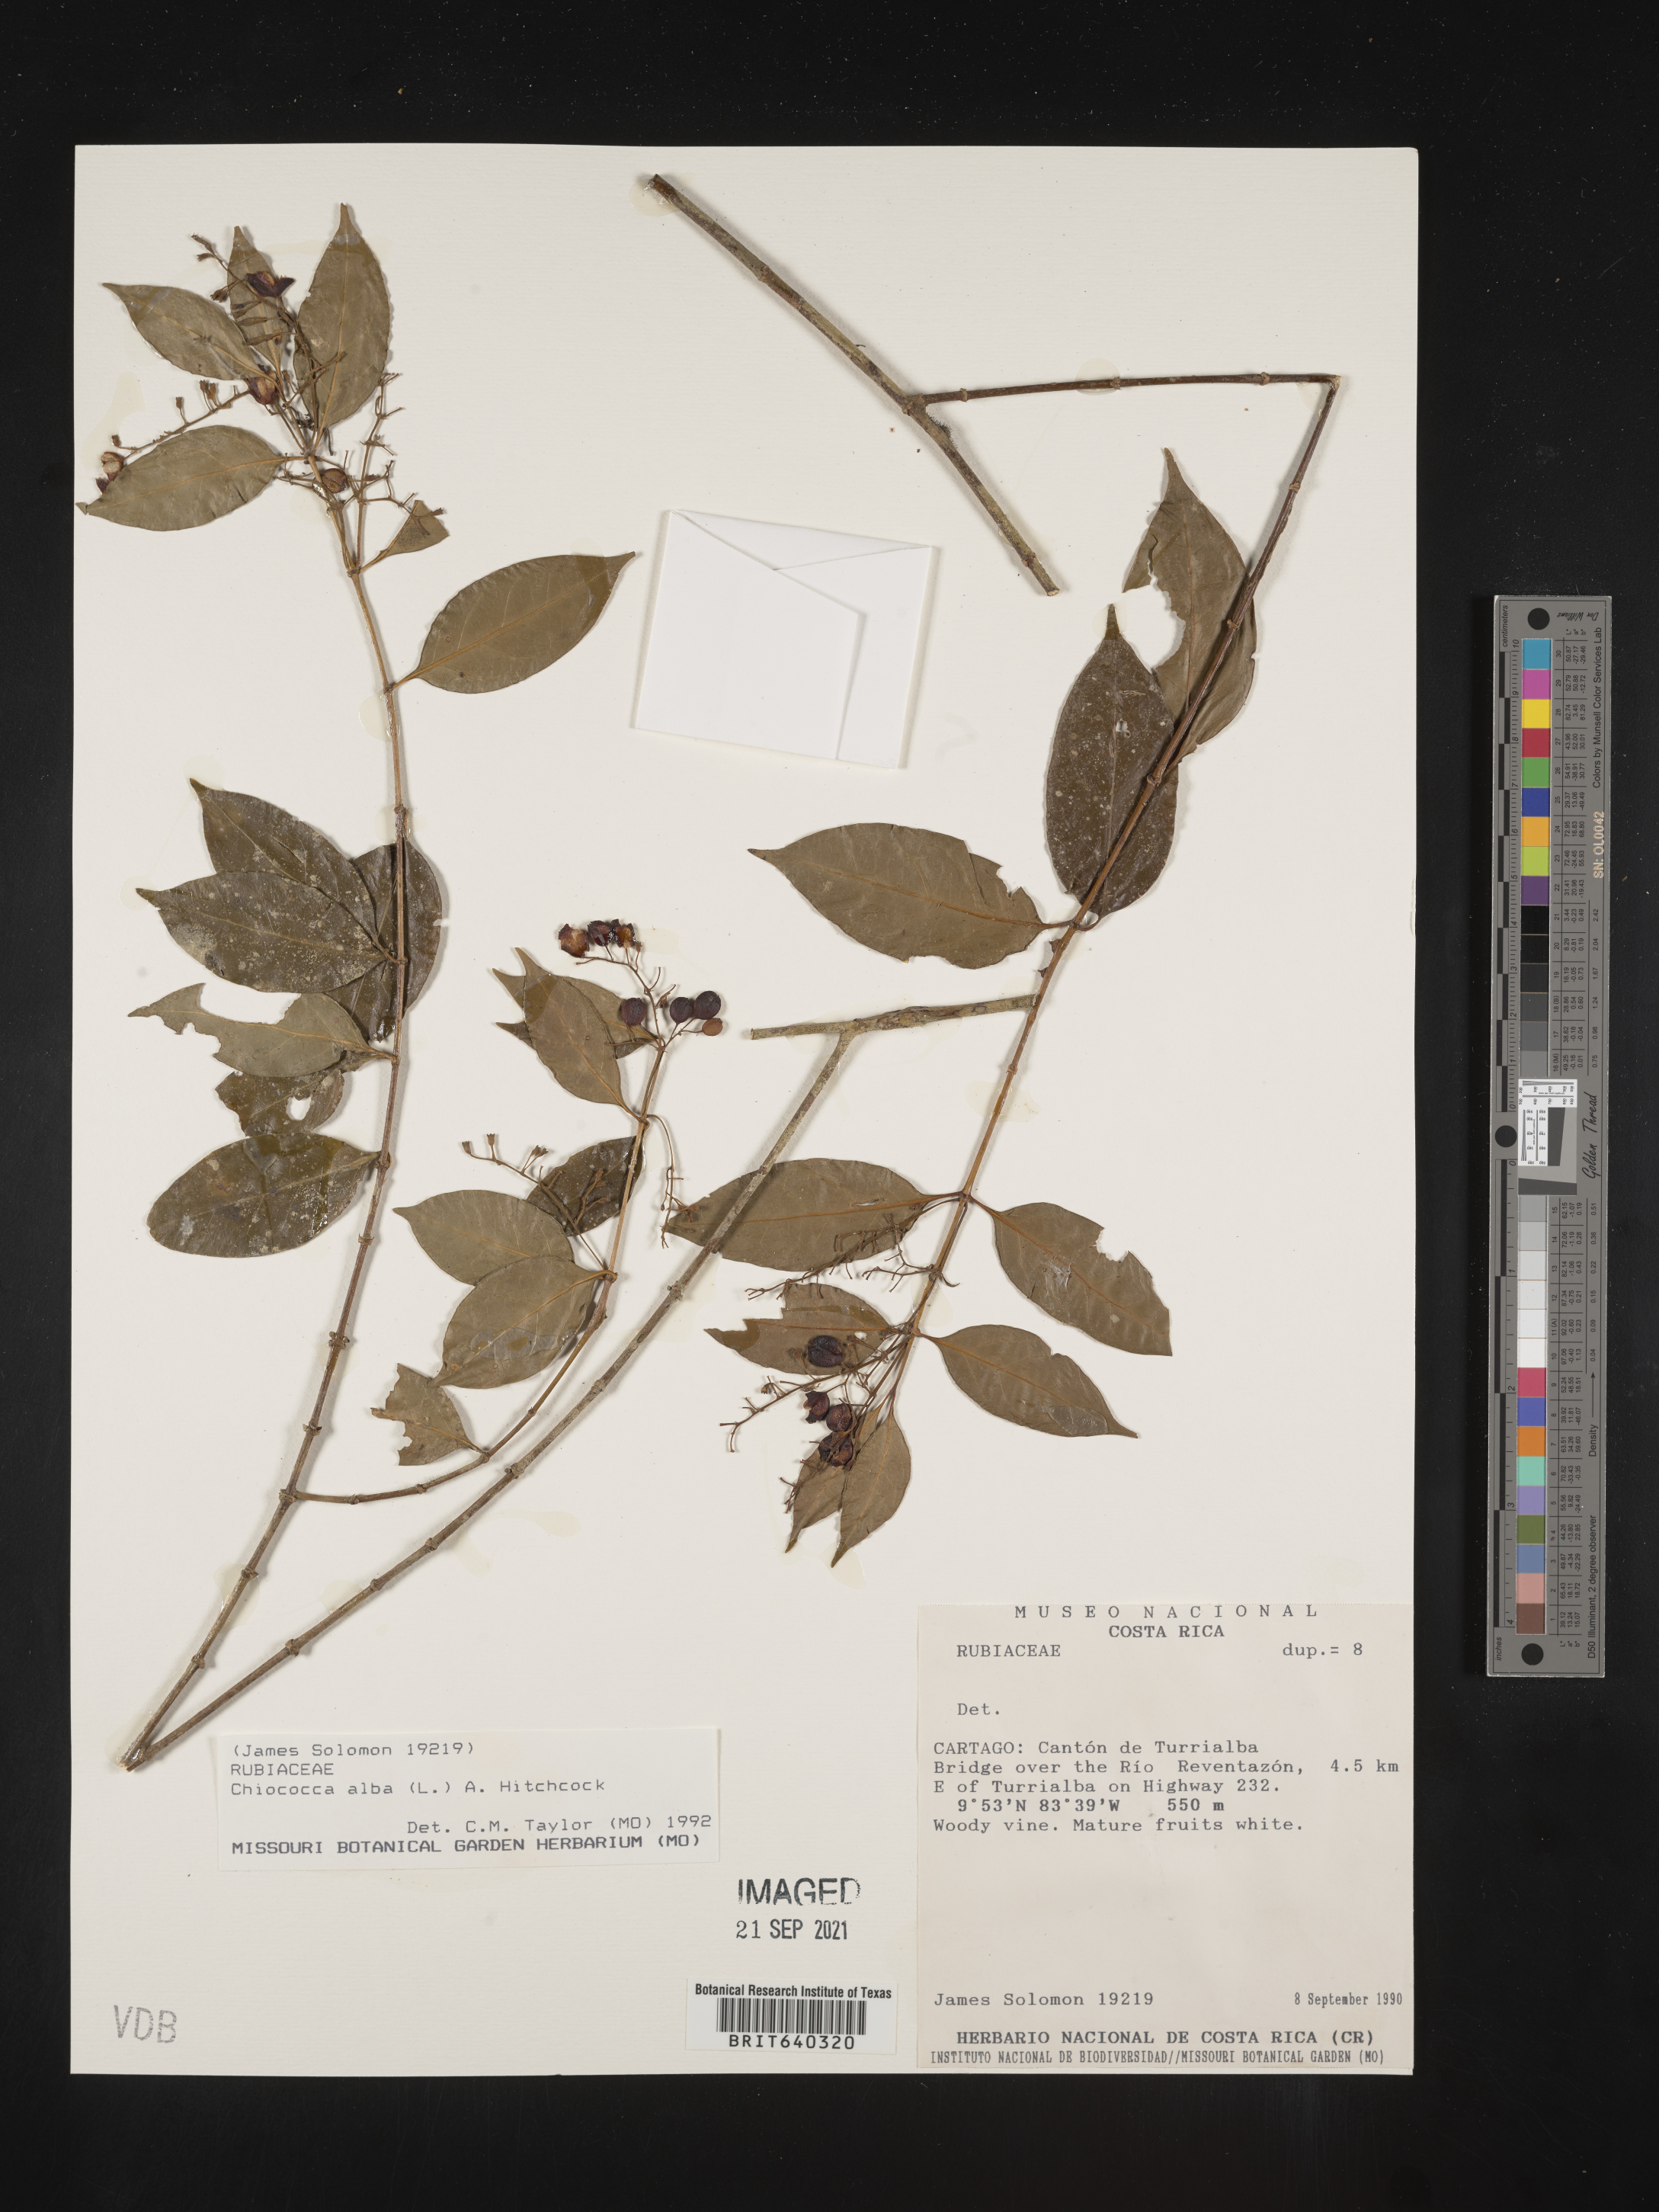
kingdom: Plantae
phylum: Tracheophyta
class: Magnoliopsida
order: Gentianales
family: Rubiaceae
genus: Chiococca
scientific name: Chiococca
